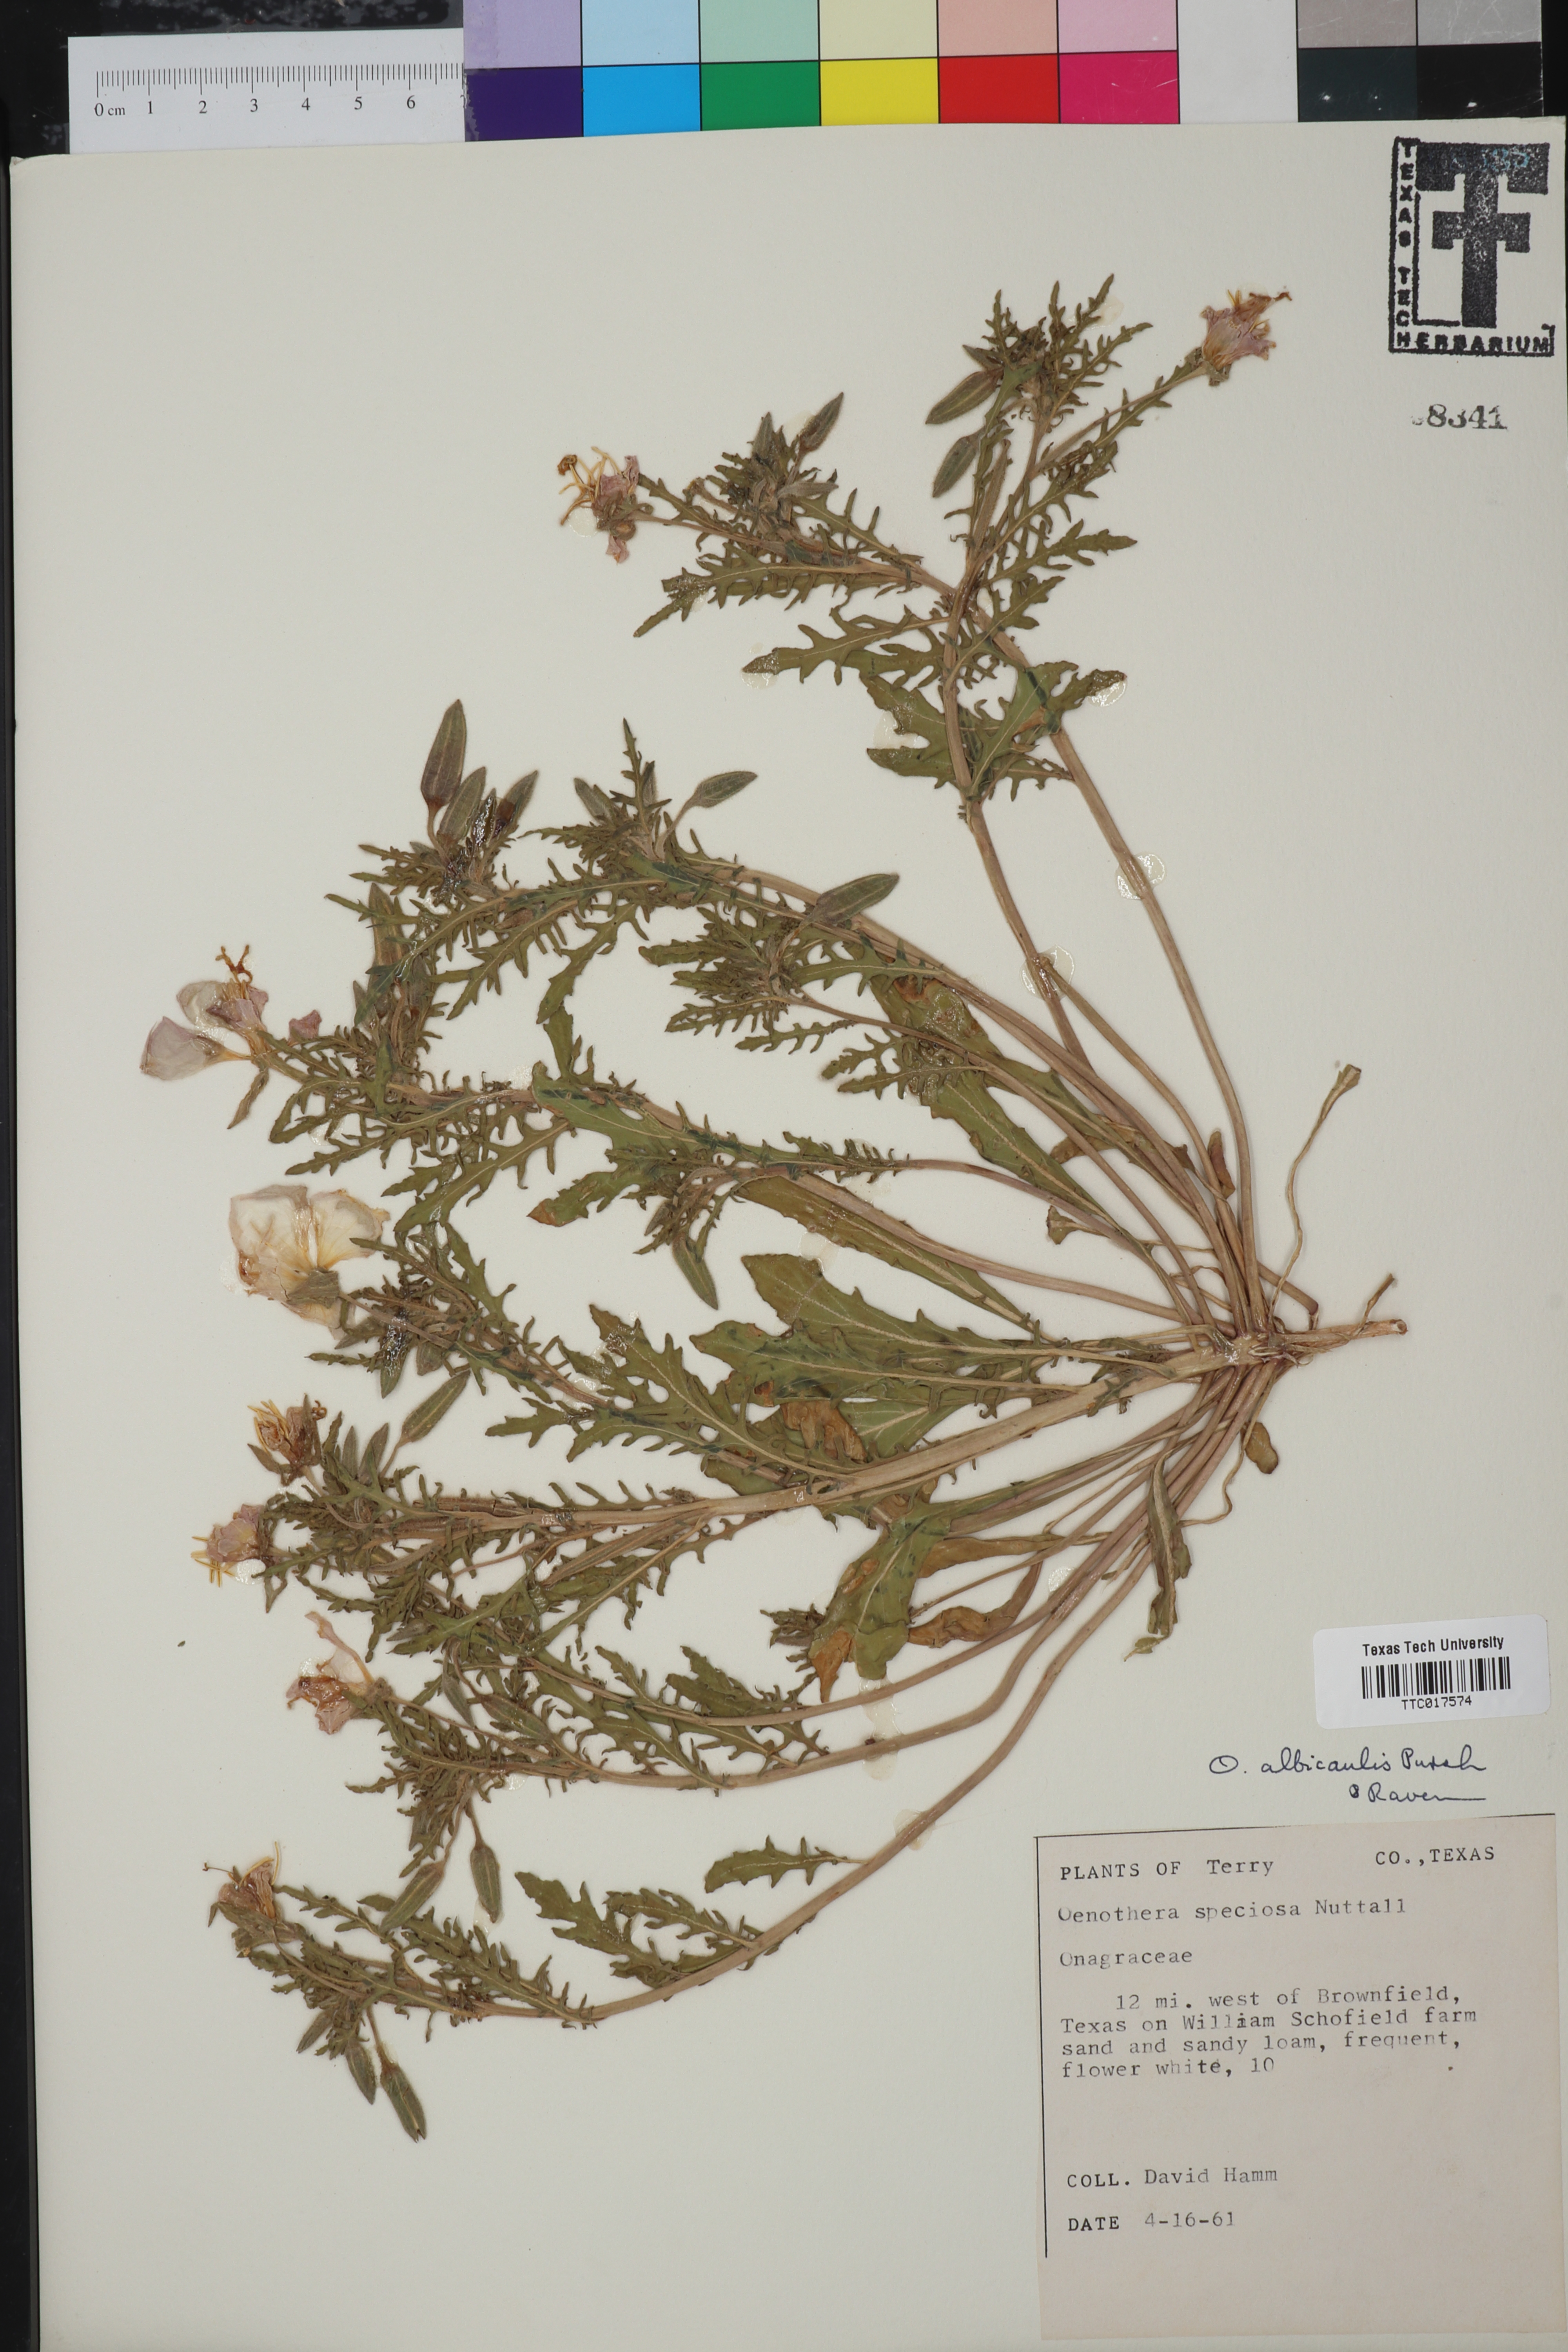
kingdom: Plantae
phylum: Tracheophyta
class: Magnoliopsida
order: Myrtales
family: Onagraceae
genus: Oenothera
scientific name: Oenothera albicaulis
